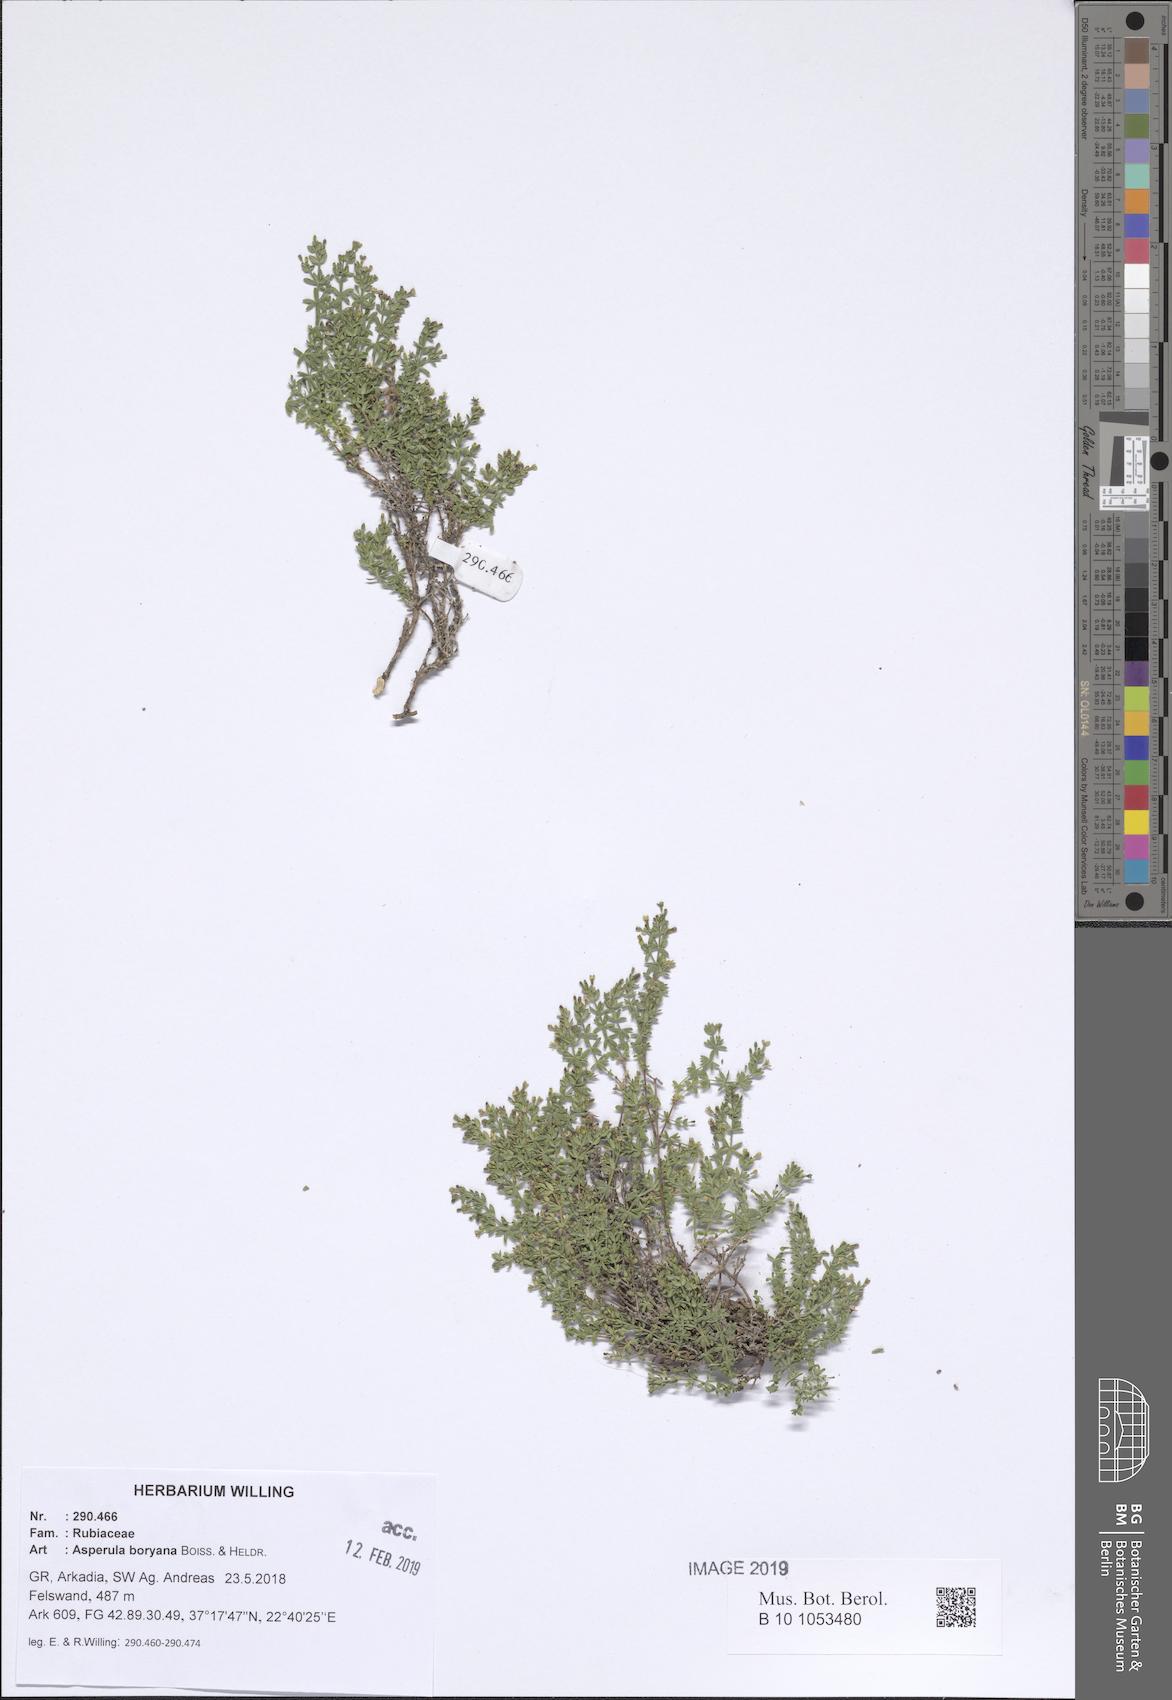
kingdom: Plantae
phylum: Tracheophyta
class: Magnoliopsida
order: Gentianales
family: Rubiaceae
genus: Thliphthisa
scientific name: Thliphthisa pusilla
